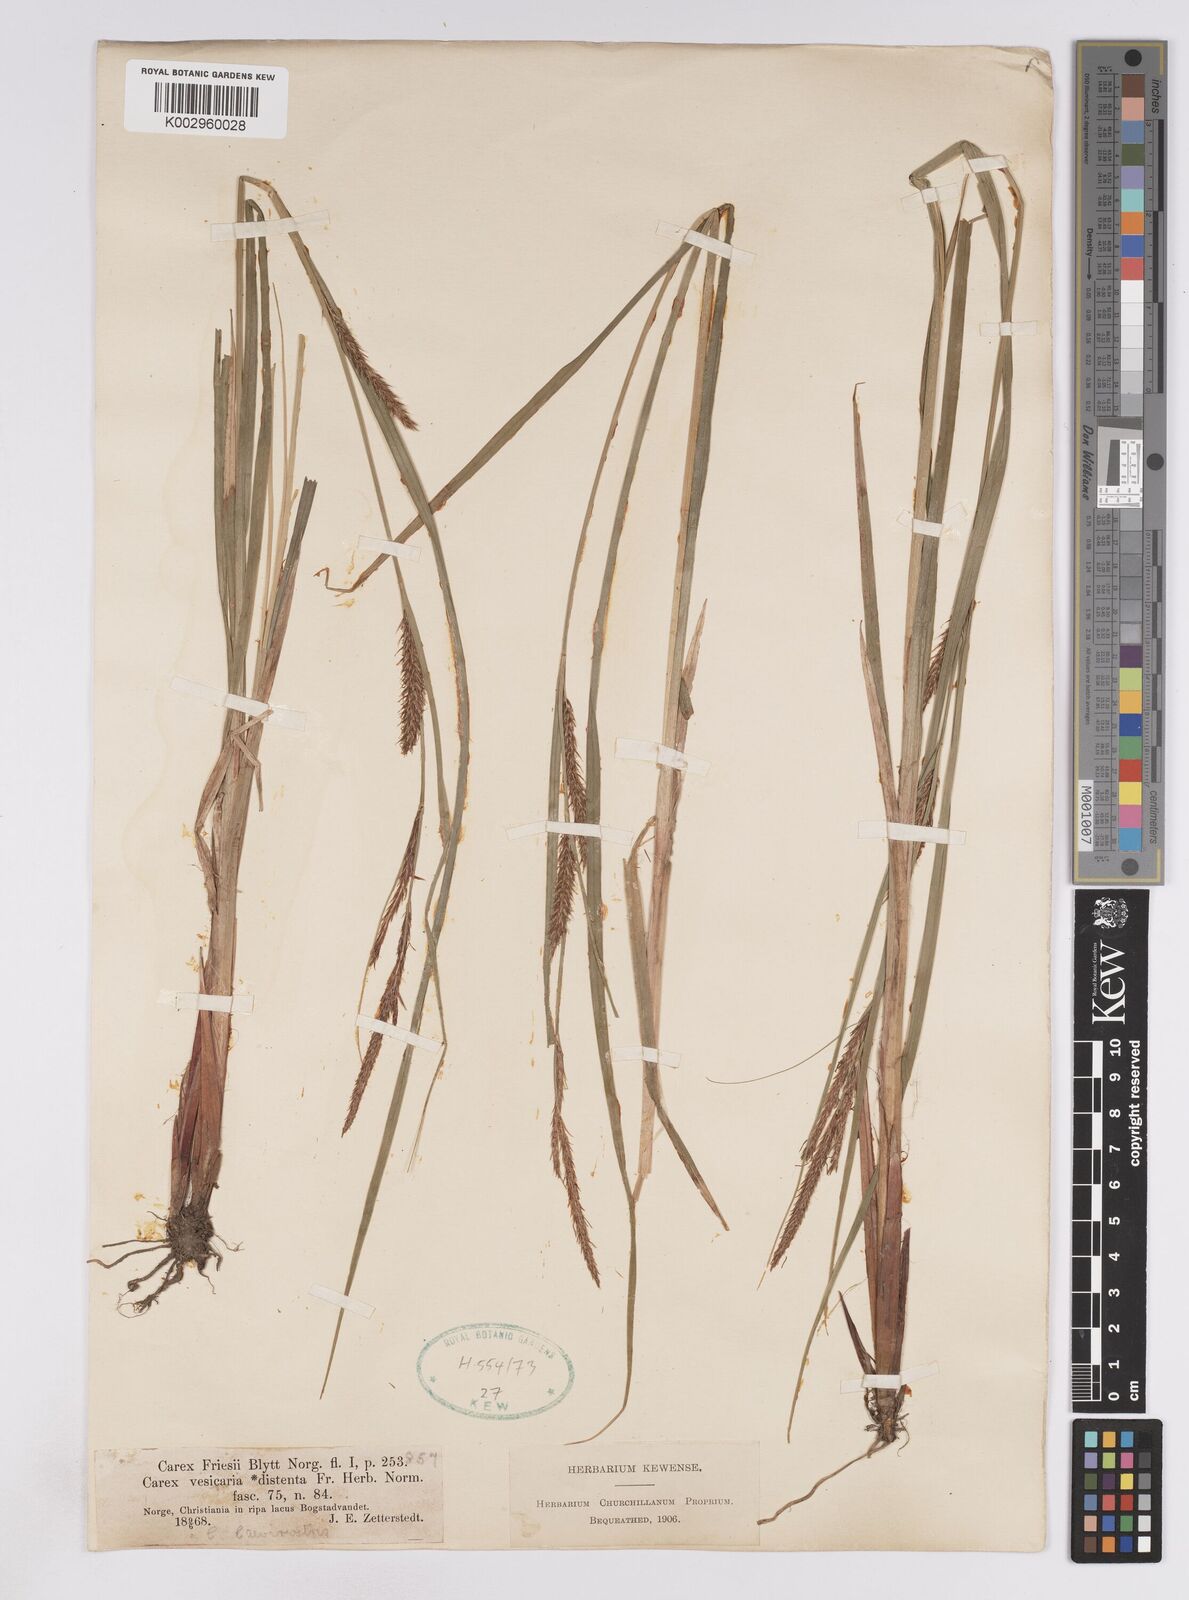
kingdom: Plantae
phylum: Tracheophyta
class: Liliopsida
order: Poales
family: Cyperaceae
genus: Carex
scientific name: Carex
